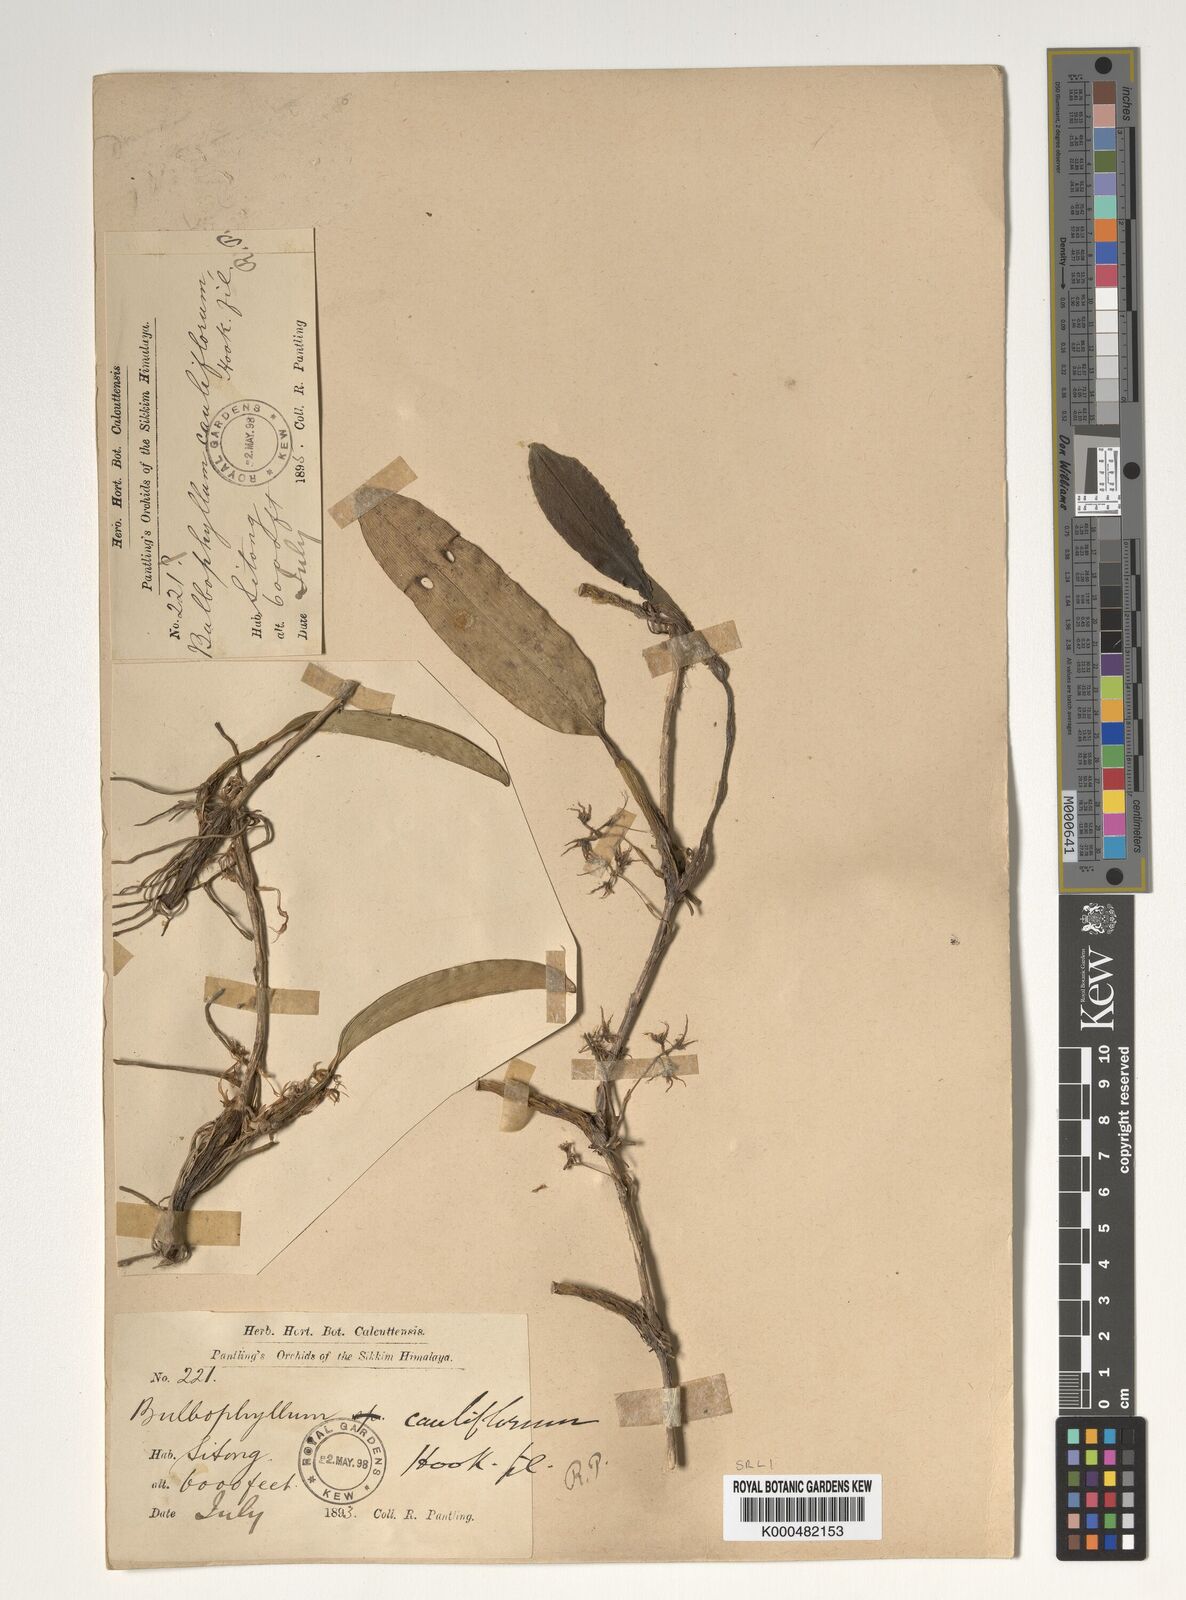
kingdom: Plantae
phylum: Tracheophyta
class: Liliopsida
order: Asparagales
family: Orchidaceae
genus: Bulbophyllum
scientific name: Bulbophyllum cauliflorum
